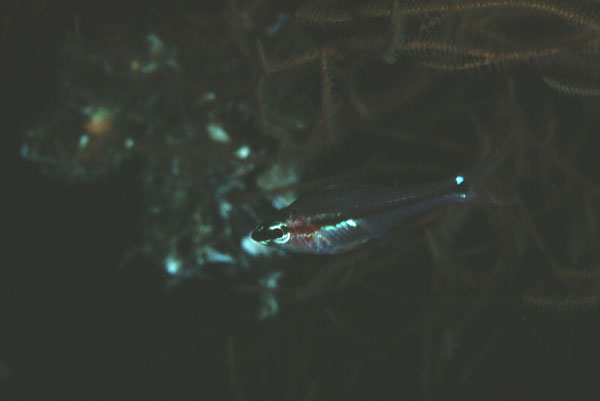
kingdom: Animalia
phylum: Chordata
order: Perciformes
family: Apogonidae
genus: Ostorhinchus
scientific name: Ostorhinchus dispar
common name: Redspot cardinalfish
